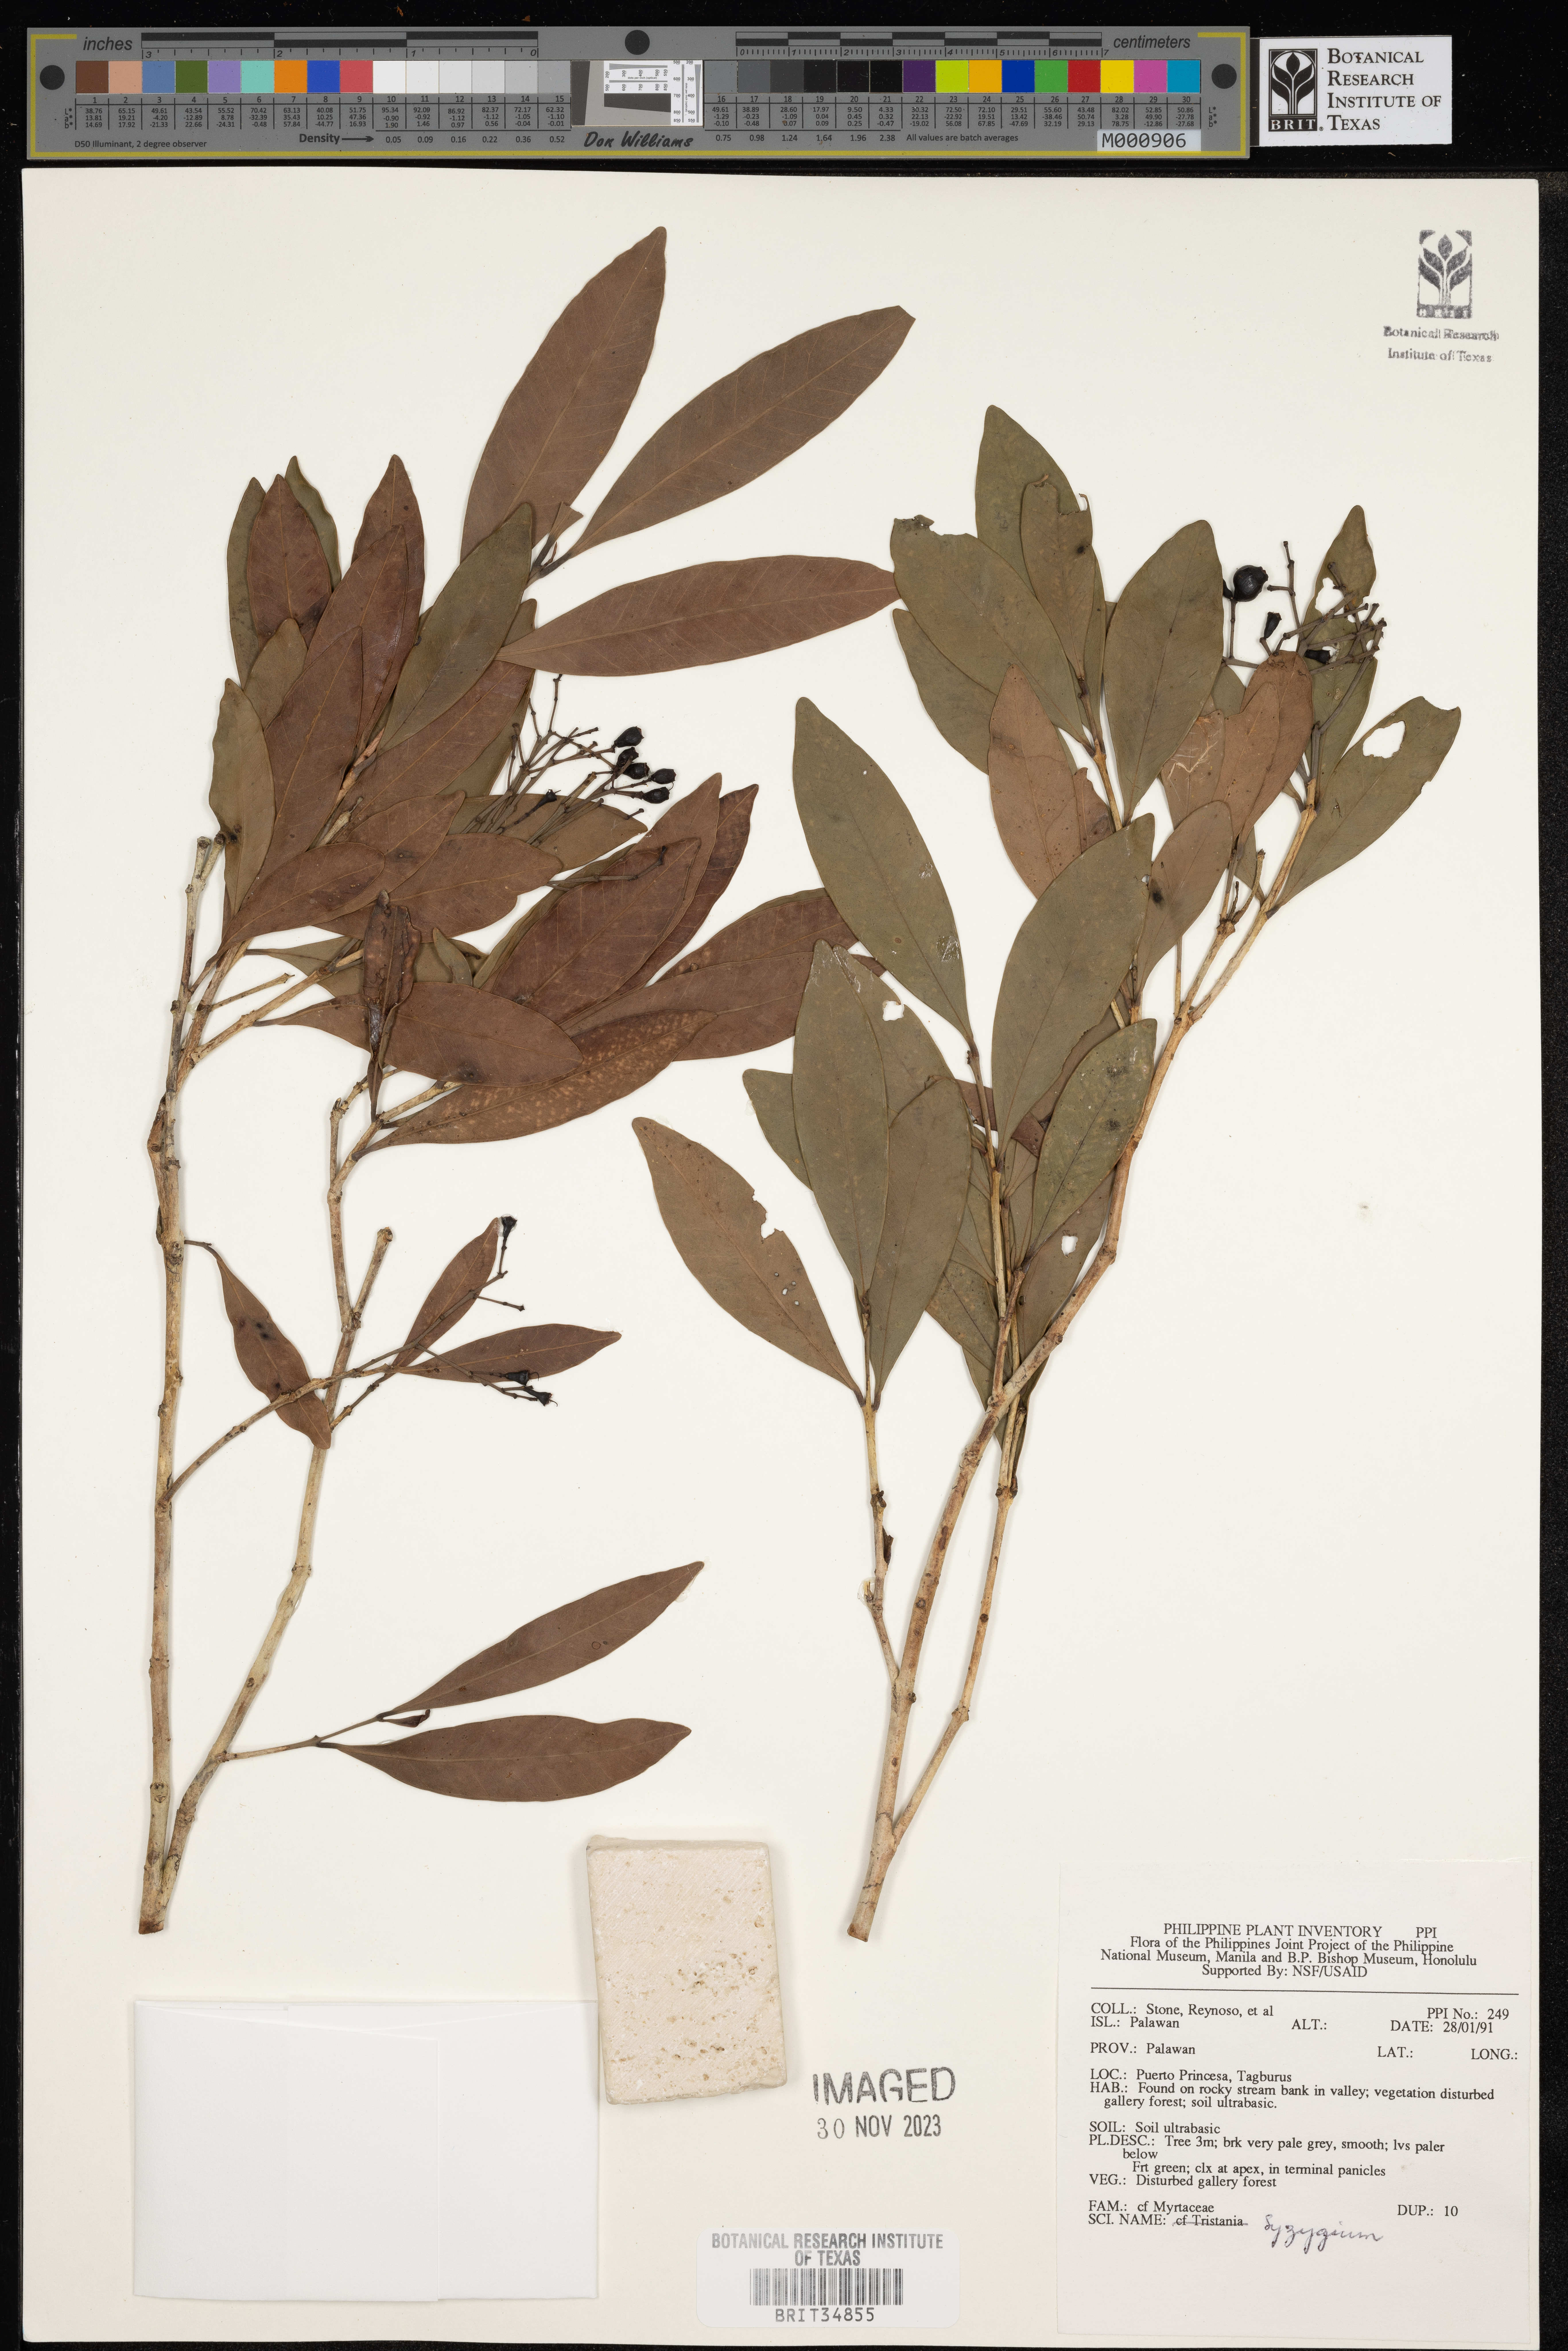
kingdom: Plantae
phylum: Tracheophyta
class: Magnoliopsida
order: Myrtales
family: Myrtaceae
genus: Syzygium
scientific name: Syzygium
